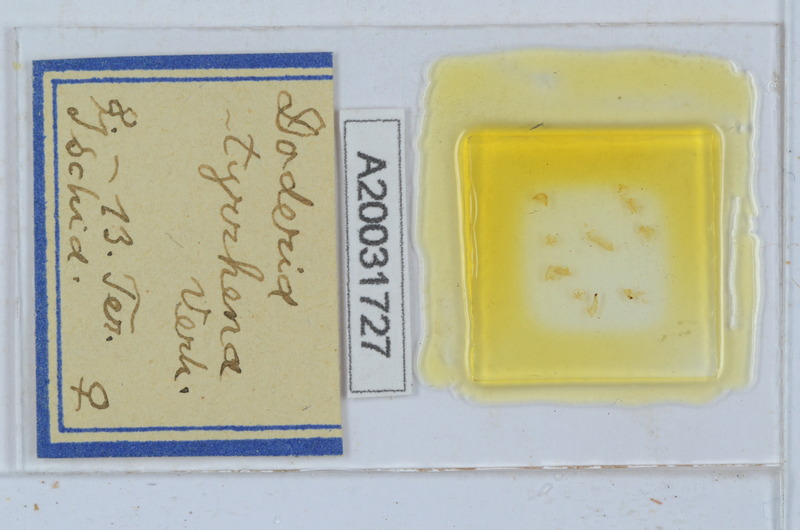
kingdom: Animalia
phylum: Arthropoda
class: Diplopoda
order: Glomerida
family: Glomeridae
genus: Doderia
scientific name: Doderia tyrrhena
